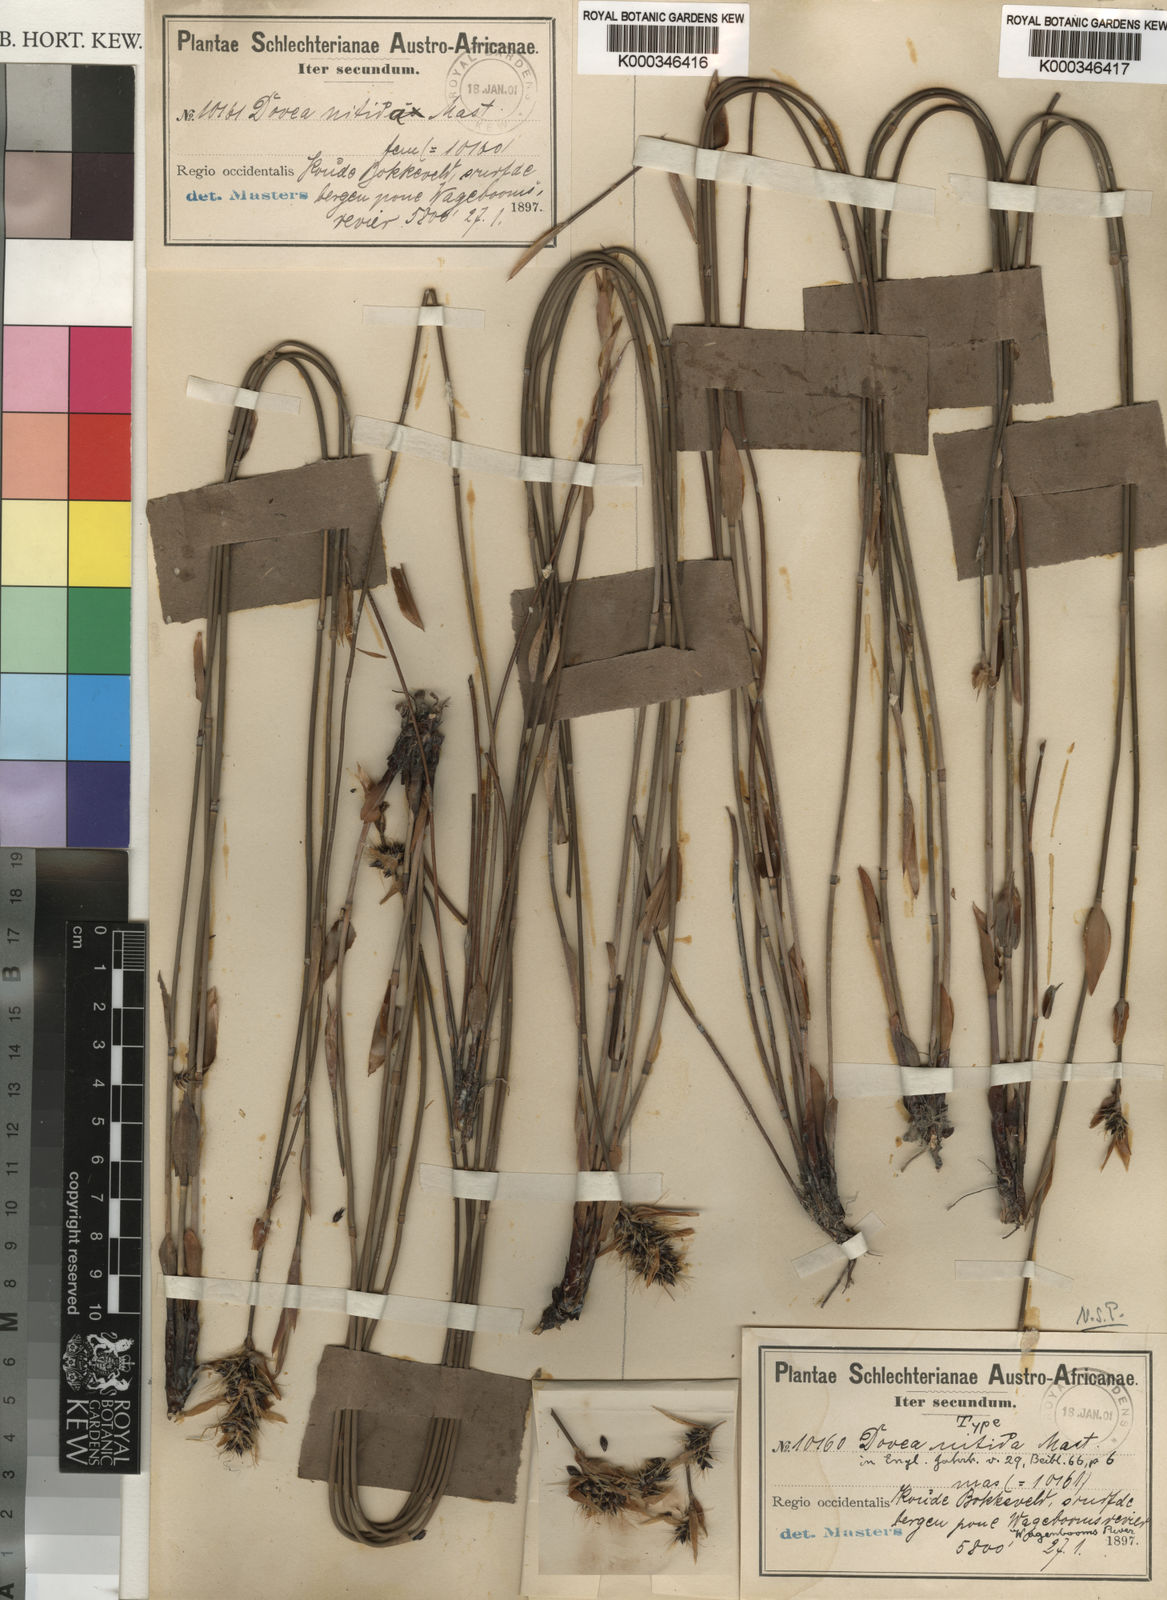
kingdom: Plantae
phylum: Tracheophyta
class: Liliopsida
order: Poales
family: Restionaceae
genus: Askidiosperma
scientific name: Askidiosperma nitidum
